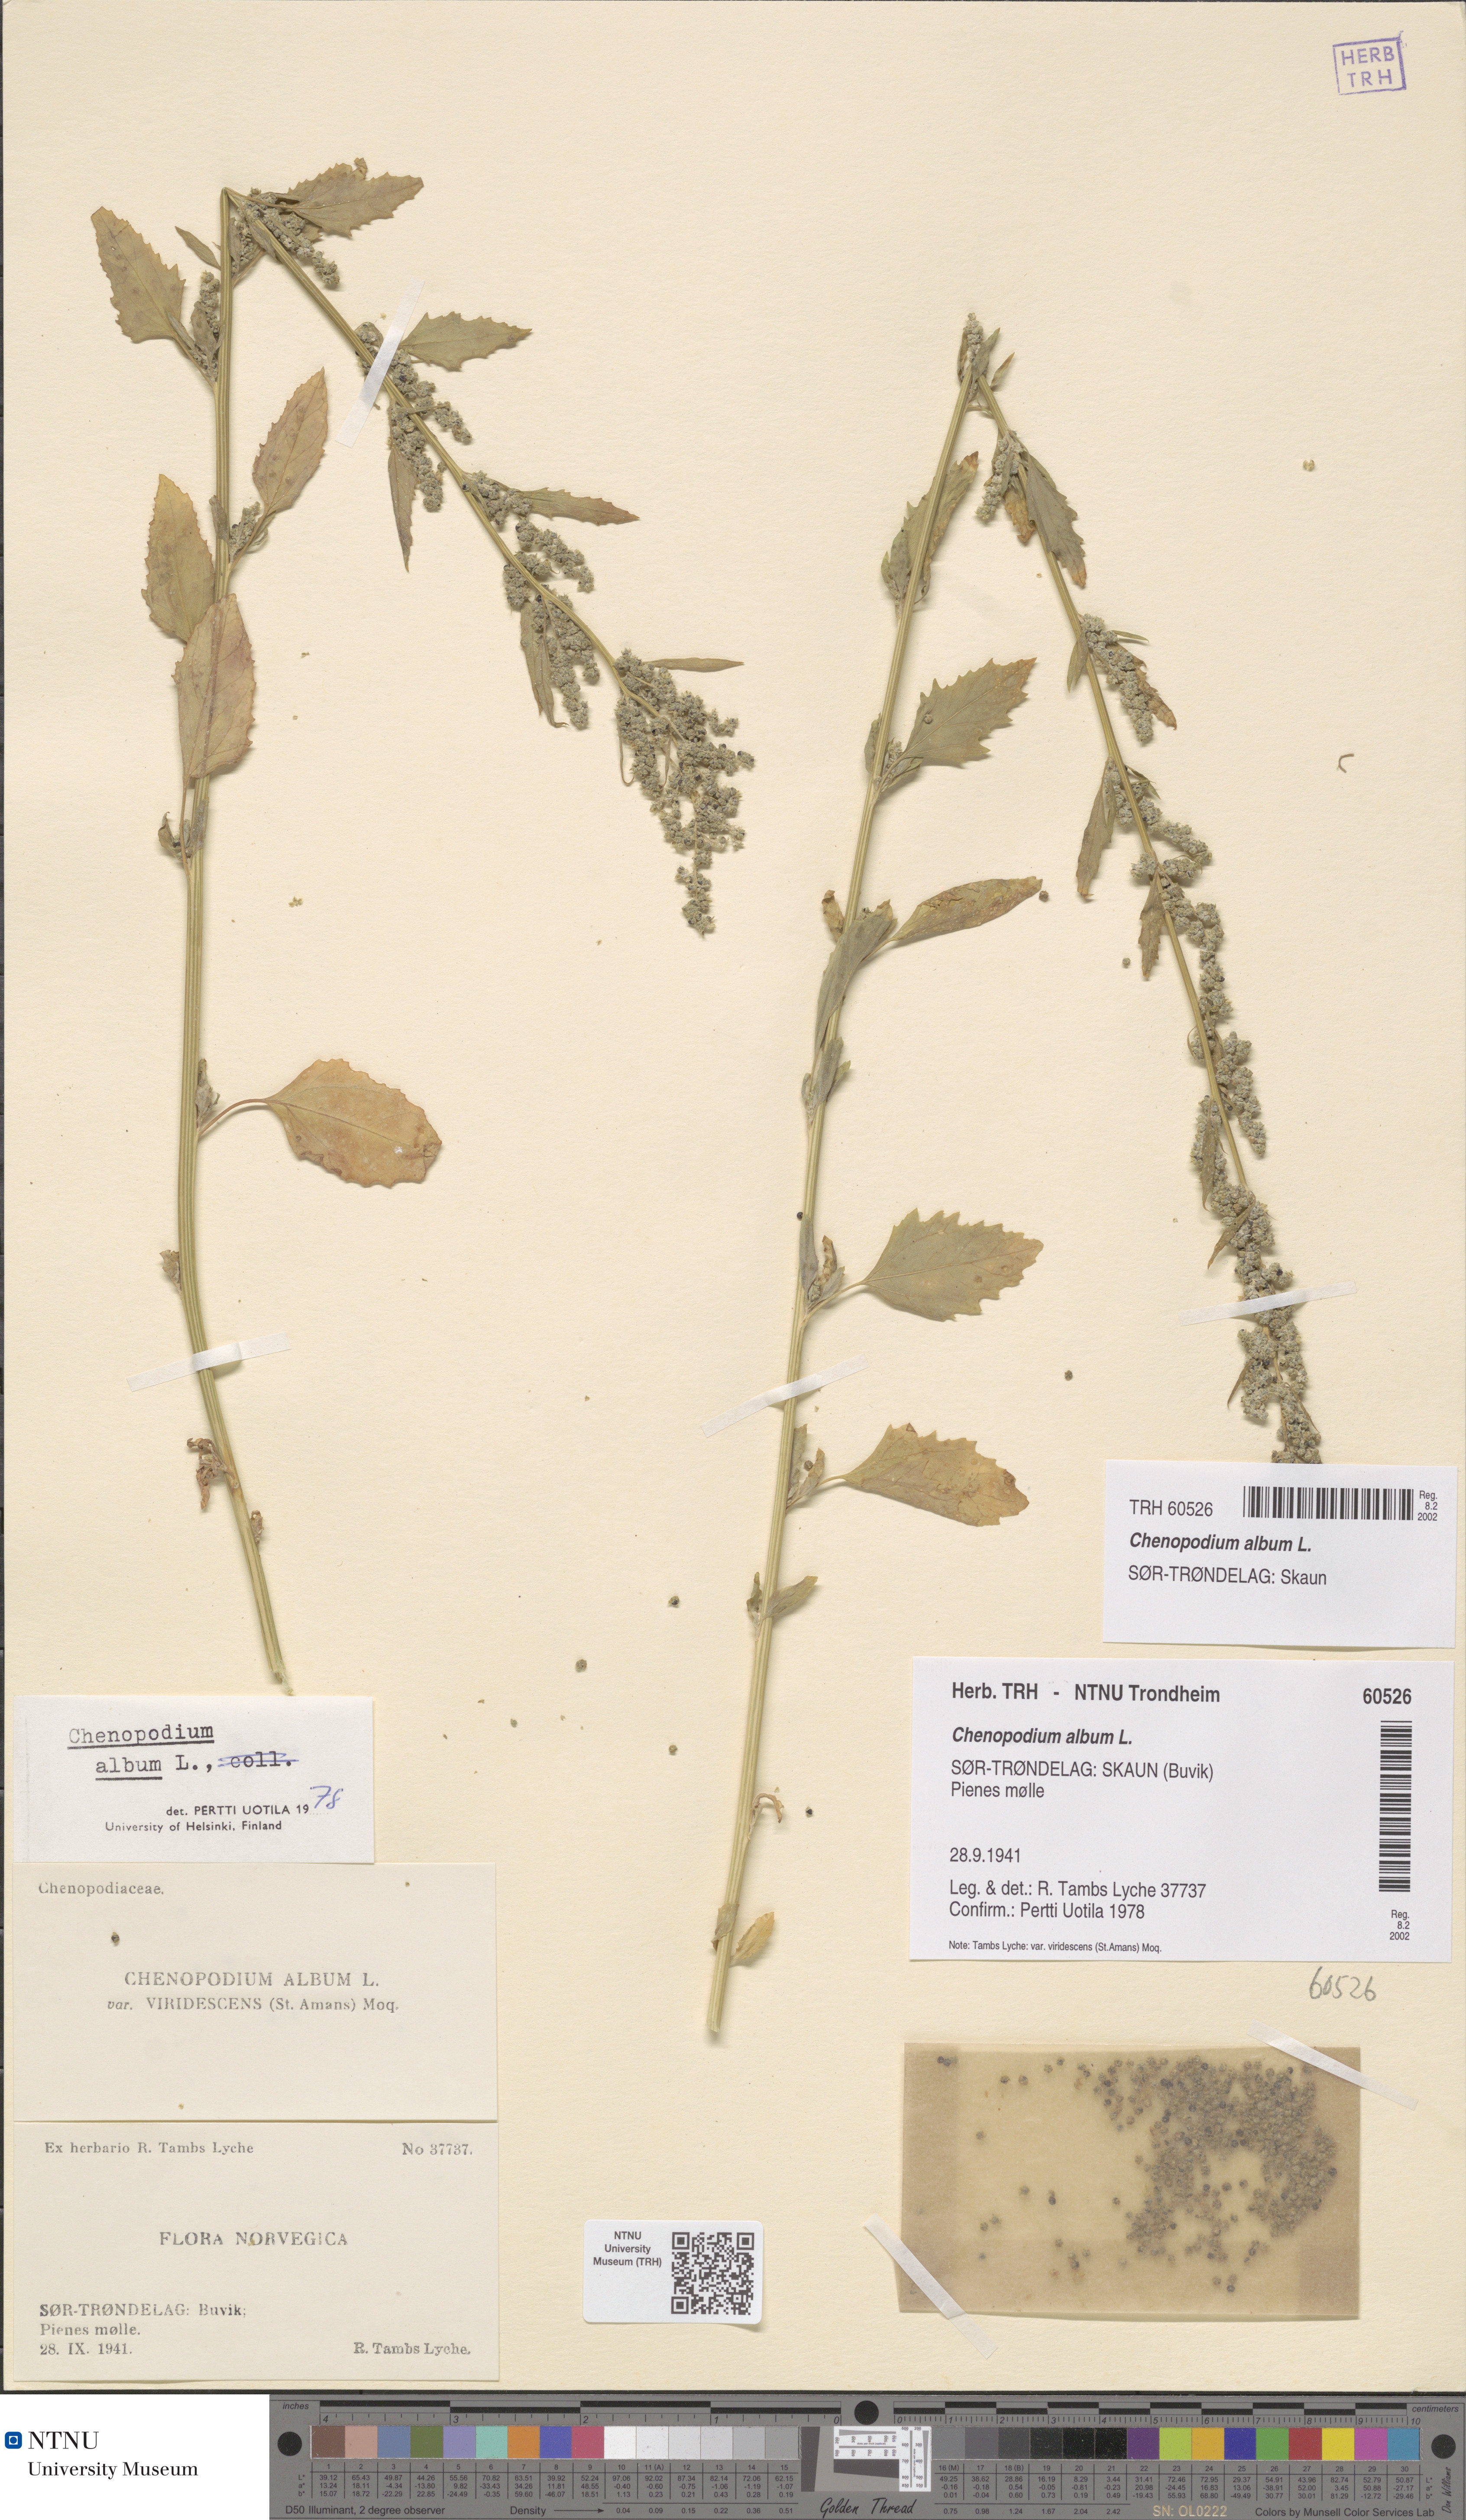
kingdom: Plantae
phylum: Tracheophyta
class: Magnoliopsida
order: Caryophyllales
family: Amaranthaceae
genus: Chenopodium
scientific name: Chenopodium album
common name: Fat-hen
